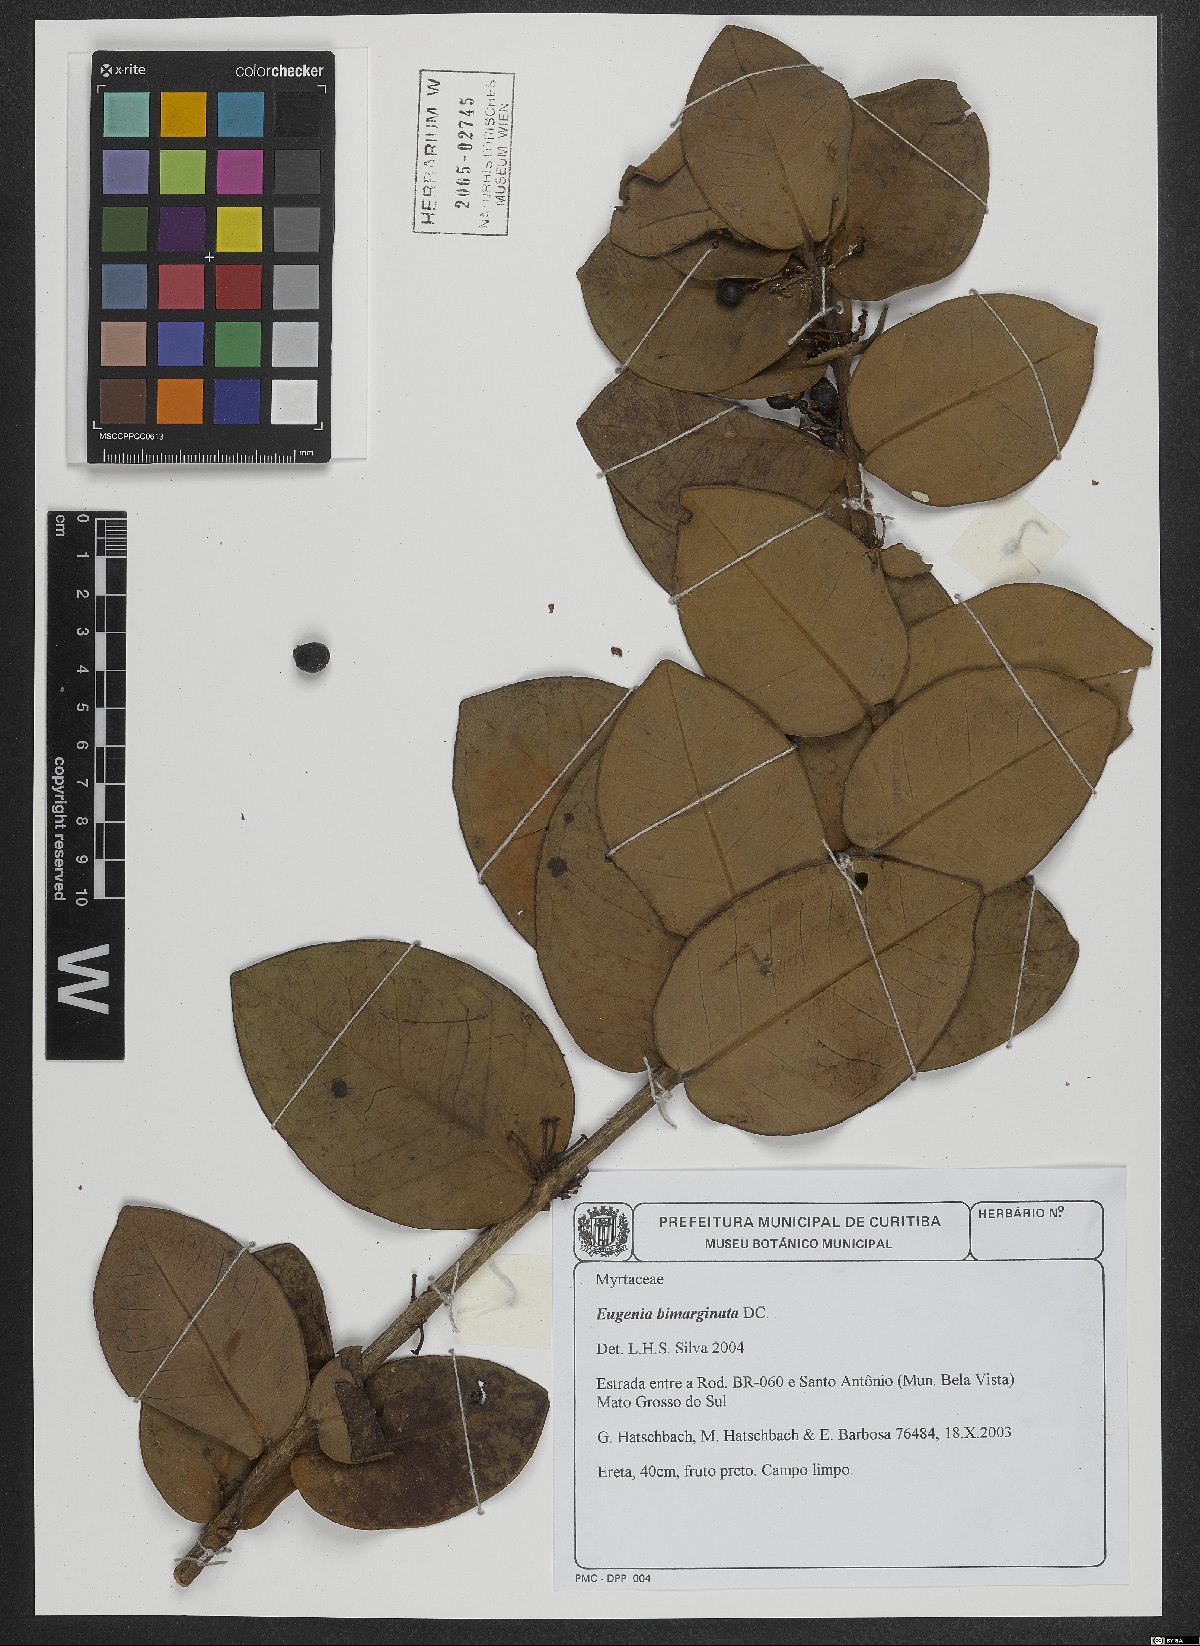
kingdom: Plantae
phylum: Tracheophyta
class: Magnoliopsida
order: Myrtales
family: Myrtaceae
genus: Eugenia
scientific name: Eugenia warmingiana
